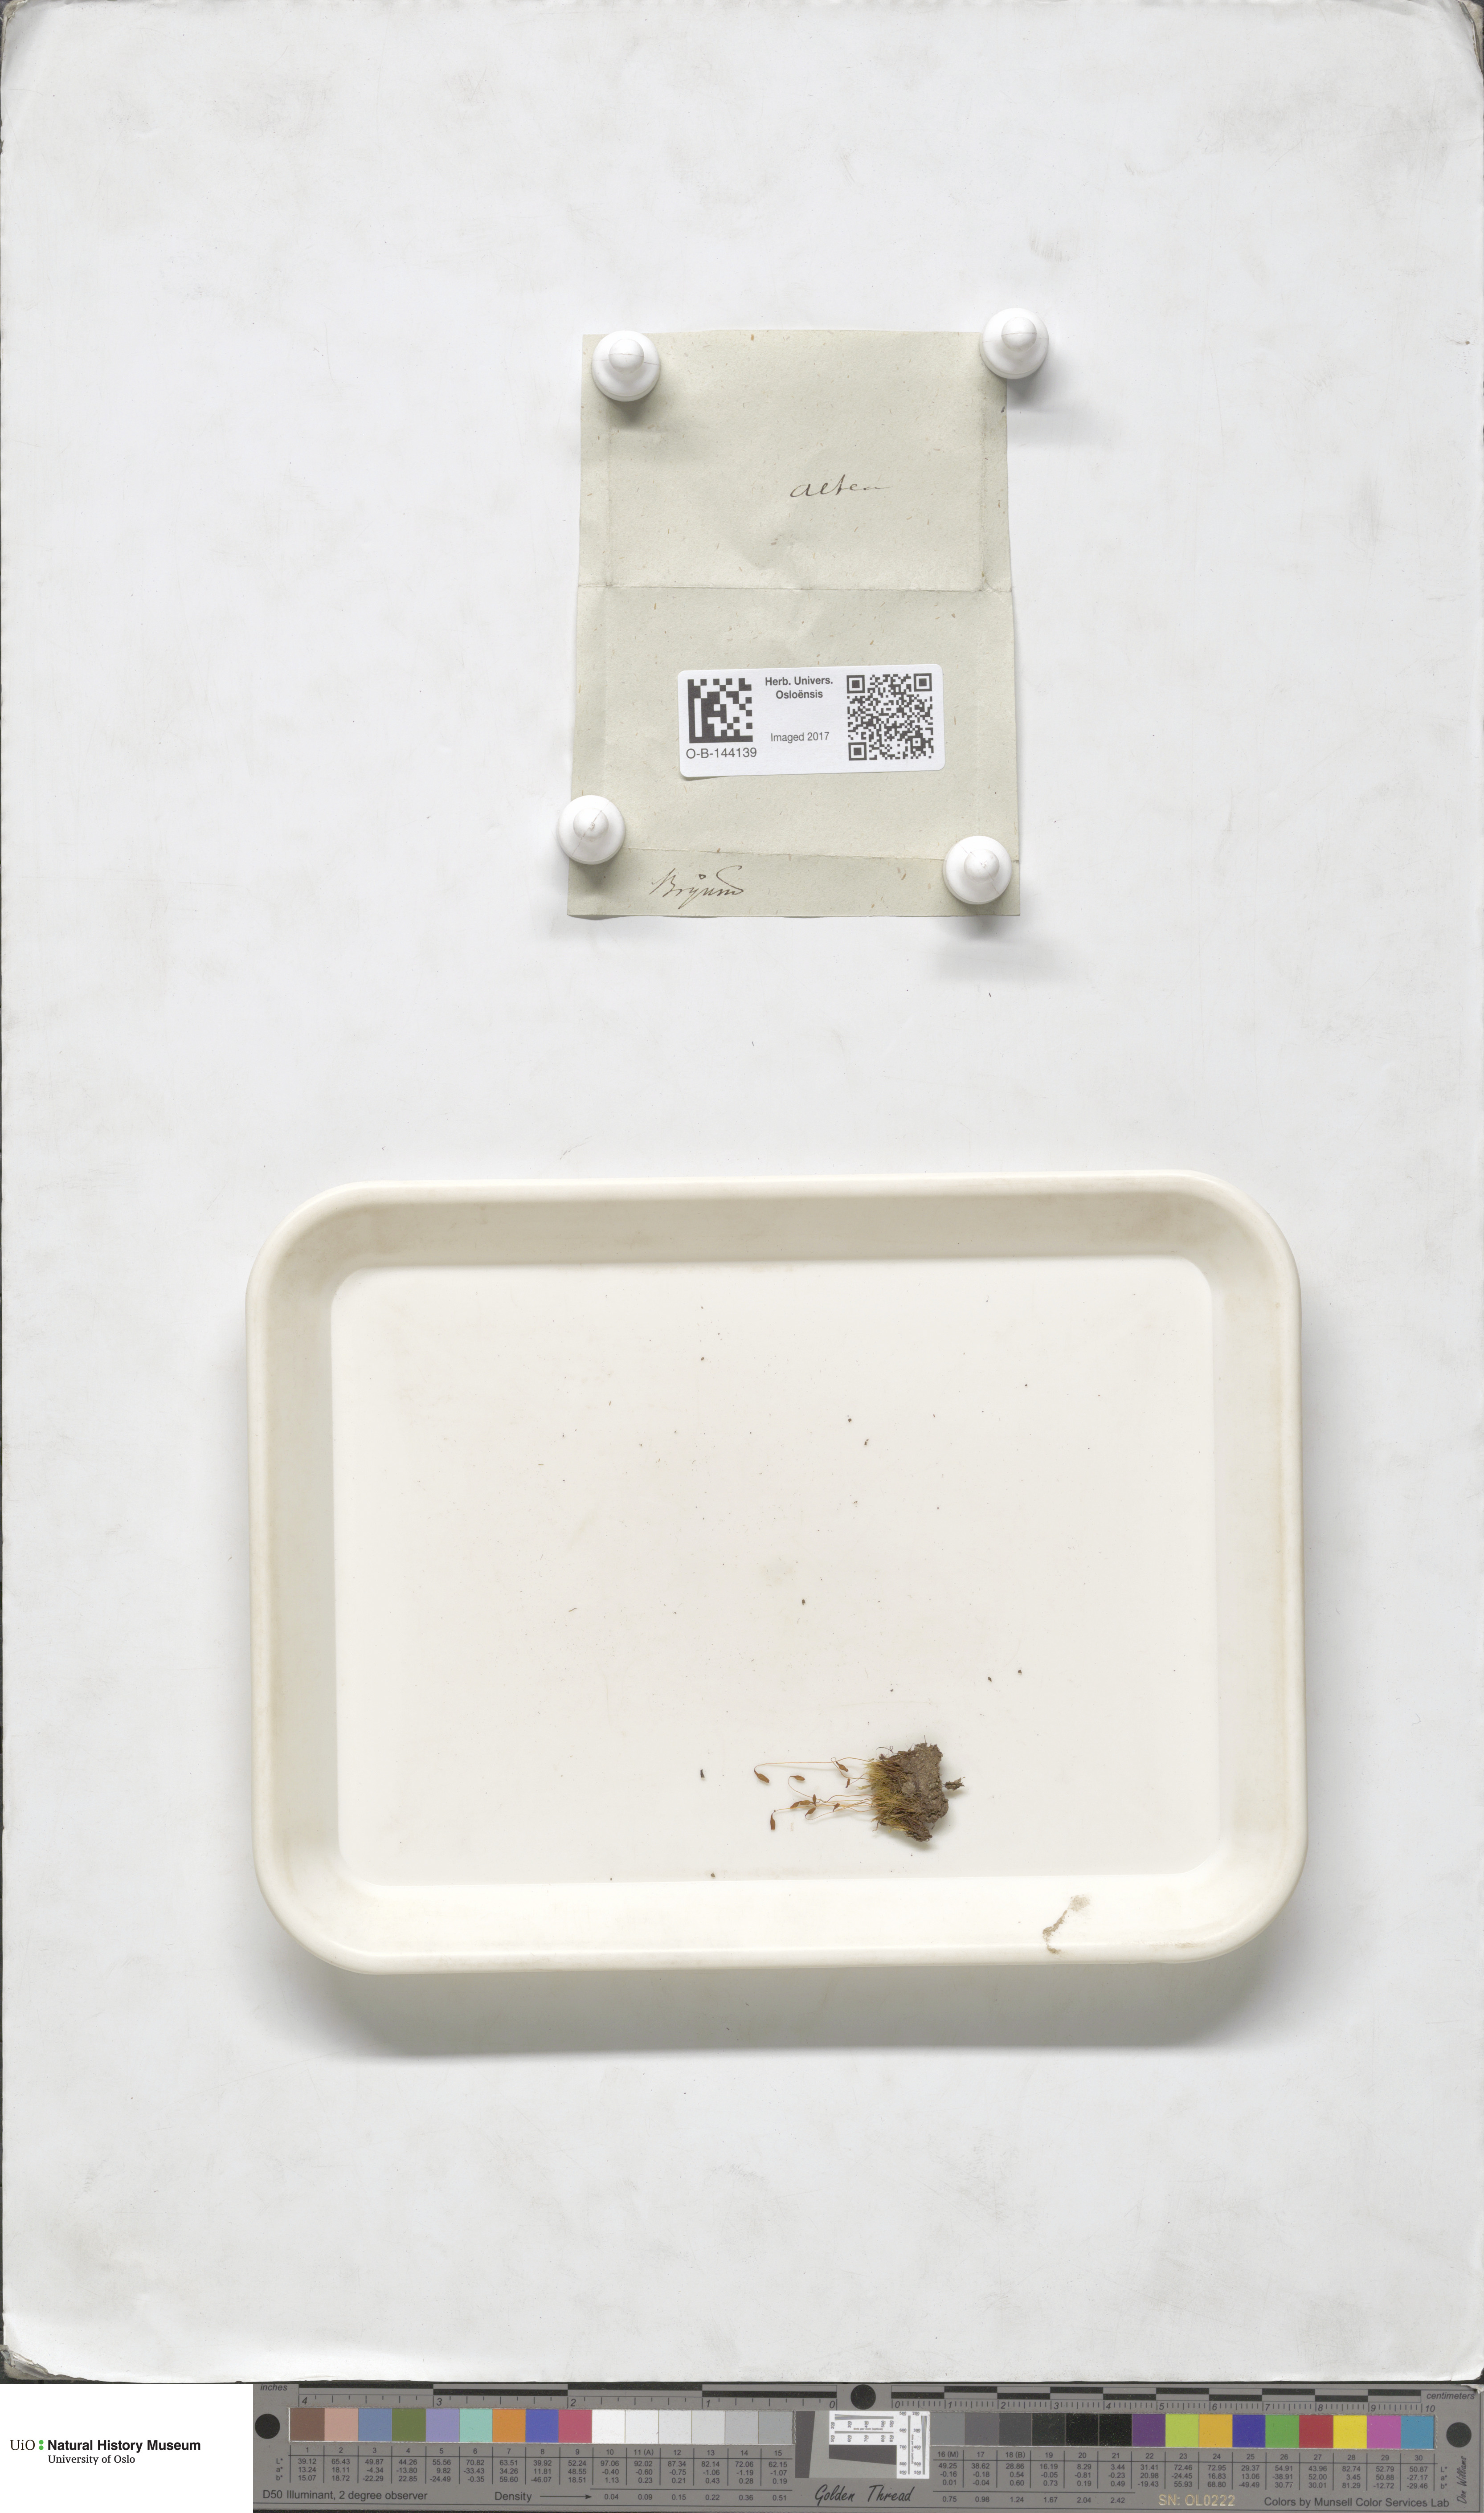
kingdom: Plantae
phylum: Bryophyta
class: Bryopsida
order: Bryales
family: Bryaceae
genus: Bryum
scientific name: Bryum
